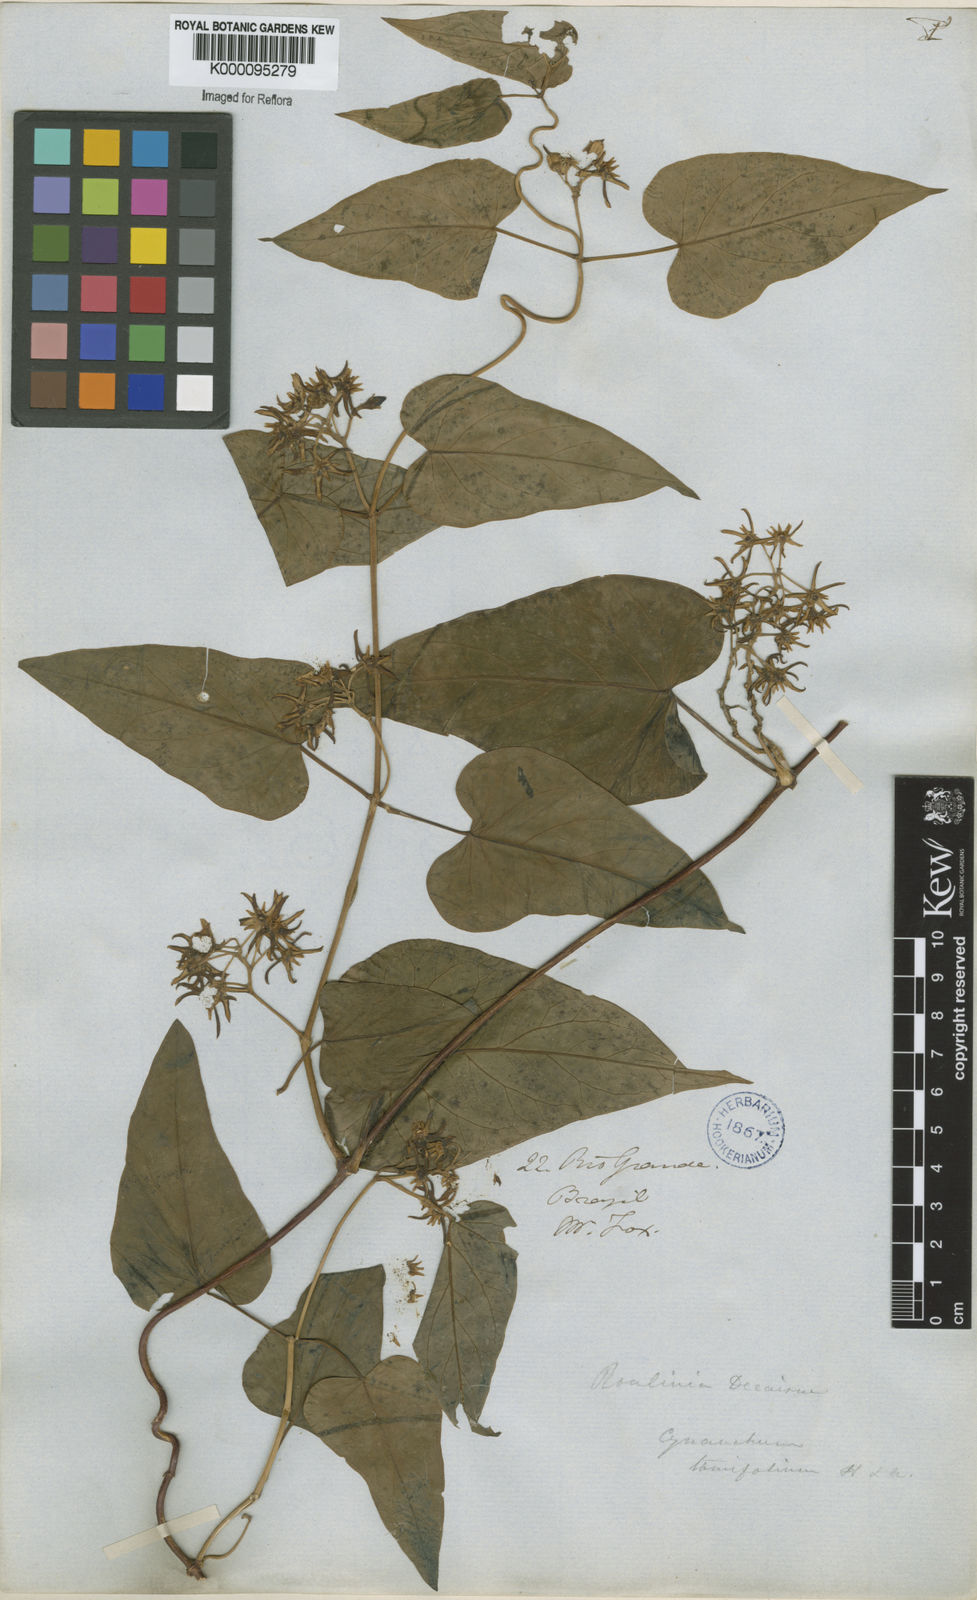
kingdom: Plantae
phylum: Tracheophyta
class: Magnoliopsida
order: Gentianales
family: Apocynaceae
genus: Cynanchum
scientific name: Cynanchum montevidense
